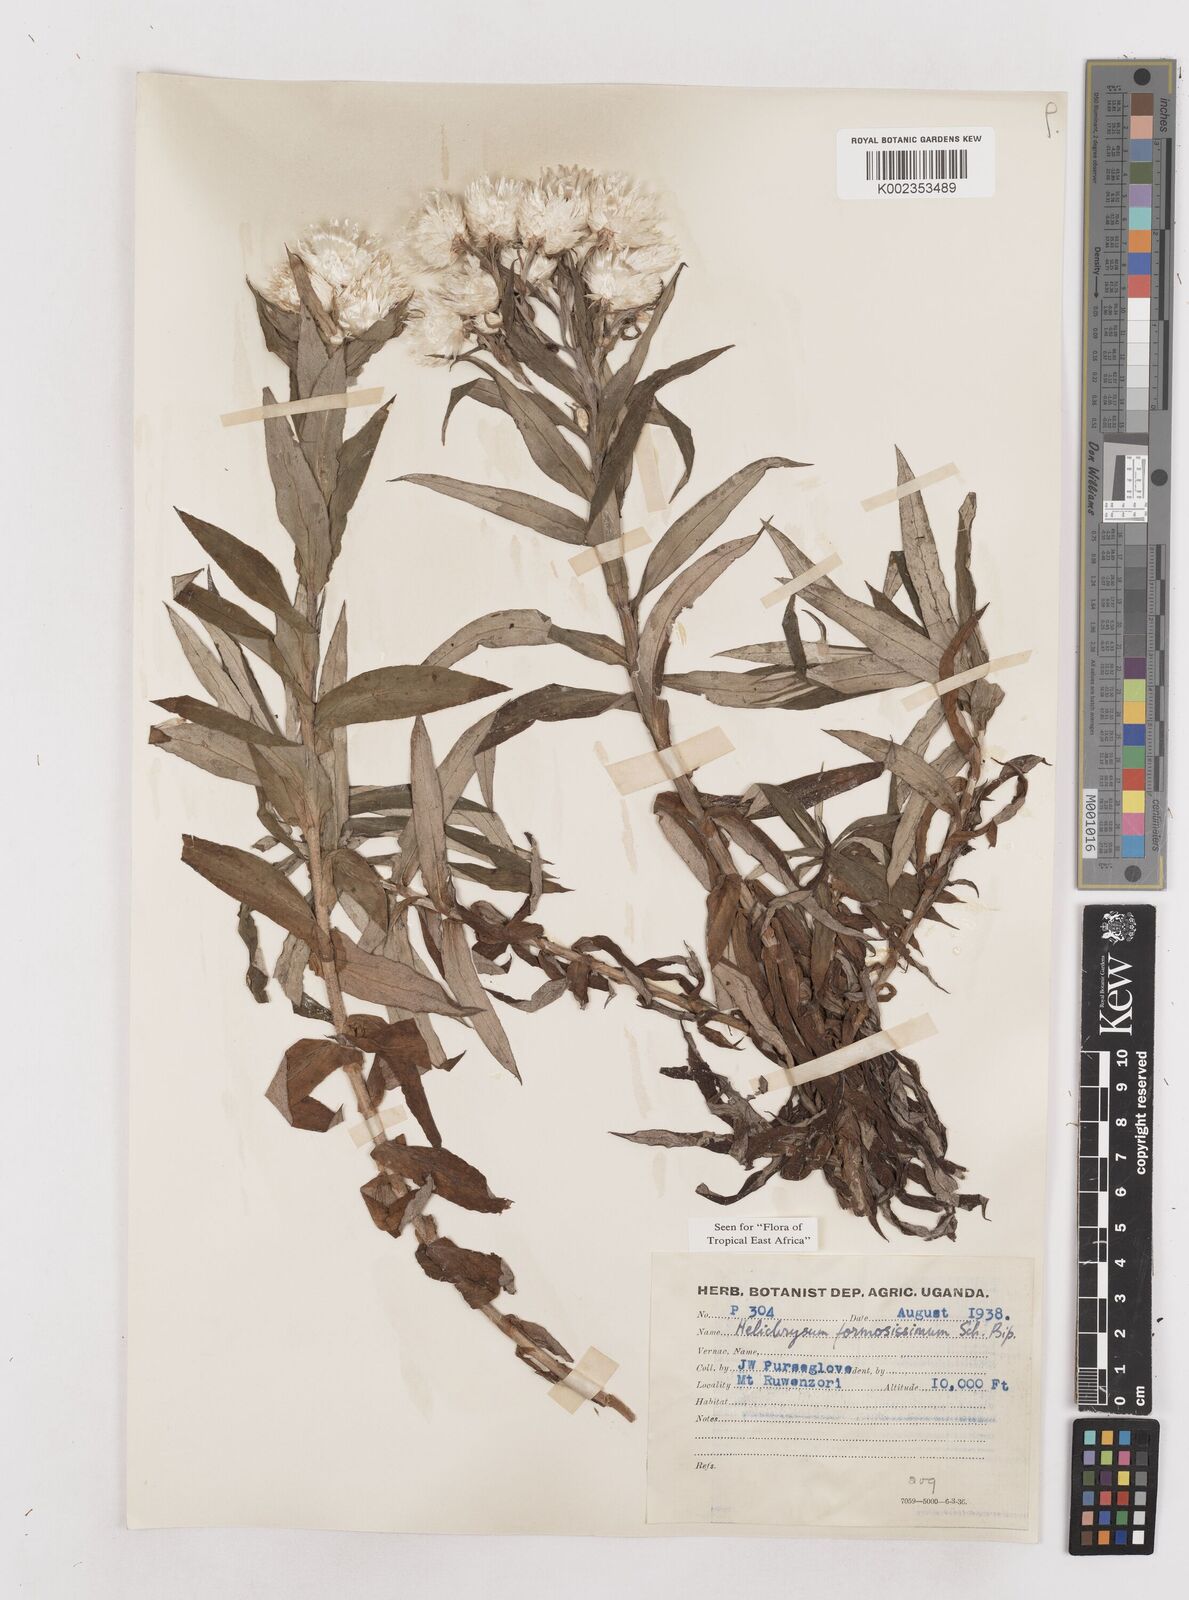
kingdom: Plantae
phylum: Tracheophyta
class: Magnoliopsida
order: Asterales
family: Asteraceae
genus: Helichrysum
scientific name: Helichrysum formosissimum
